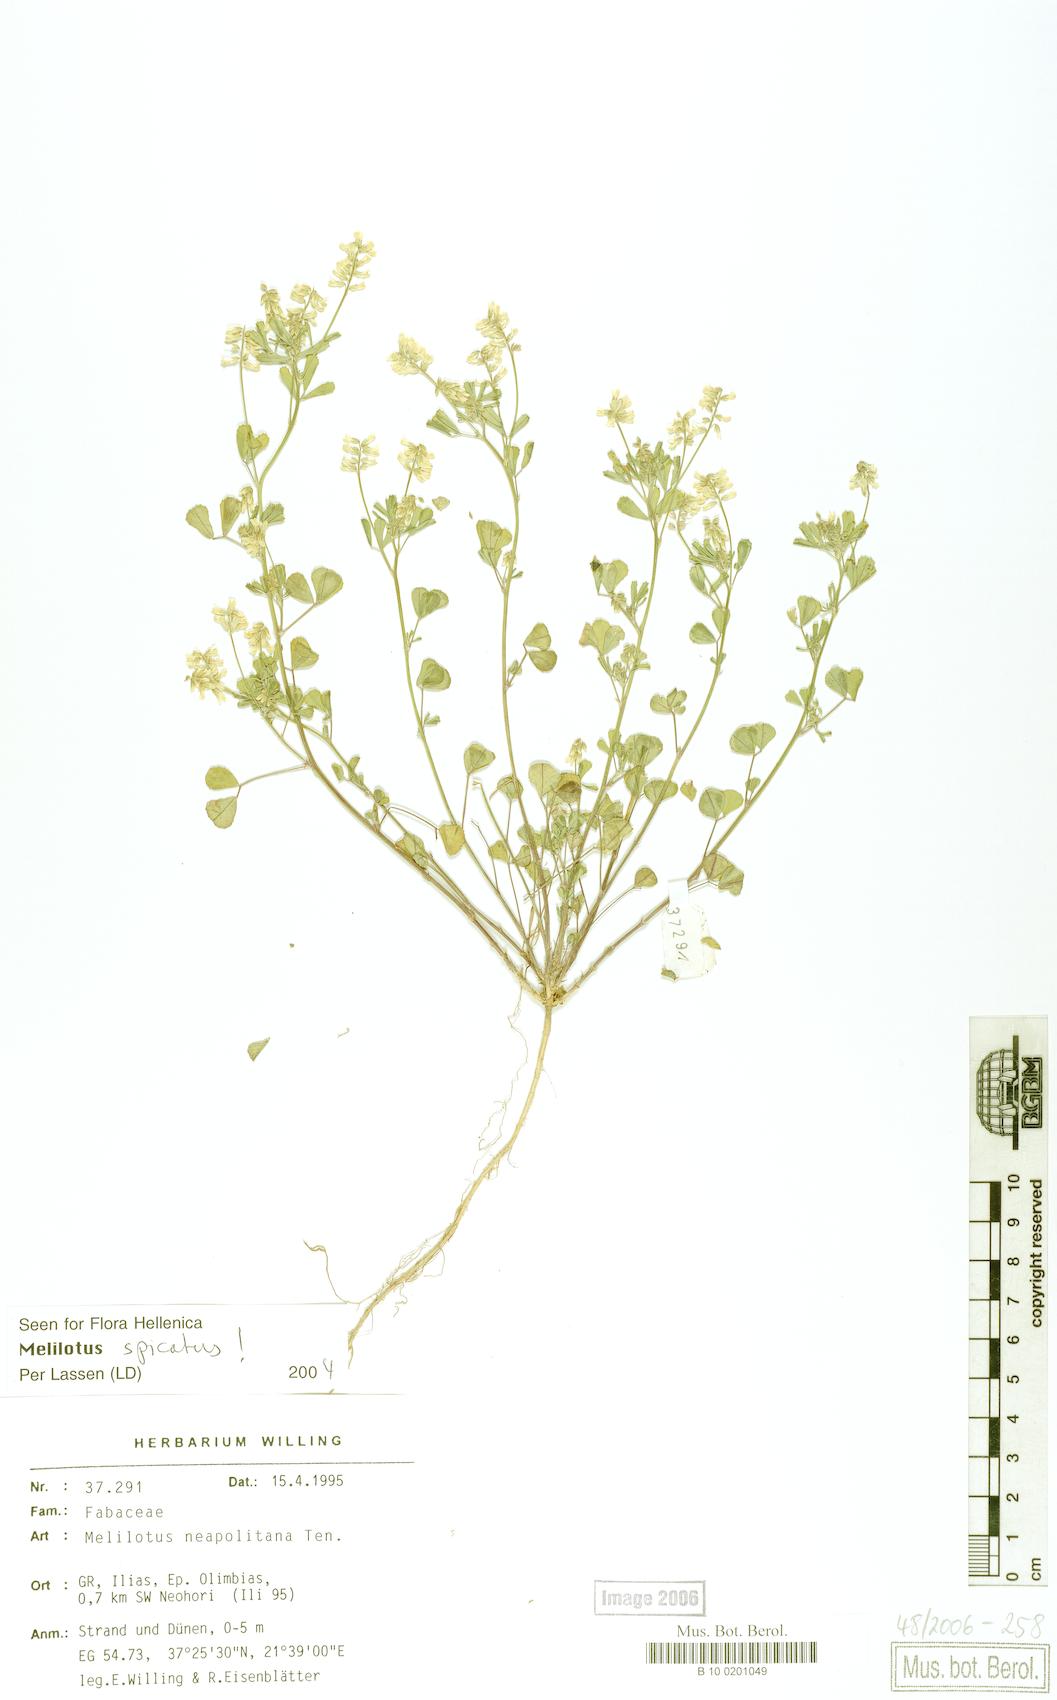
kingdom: Plantae
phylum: Tracheophyta
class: Magnoliopsida
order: Fabales
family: Fabaceae
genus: Melilotus
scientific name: Melilotus neapolitanus
